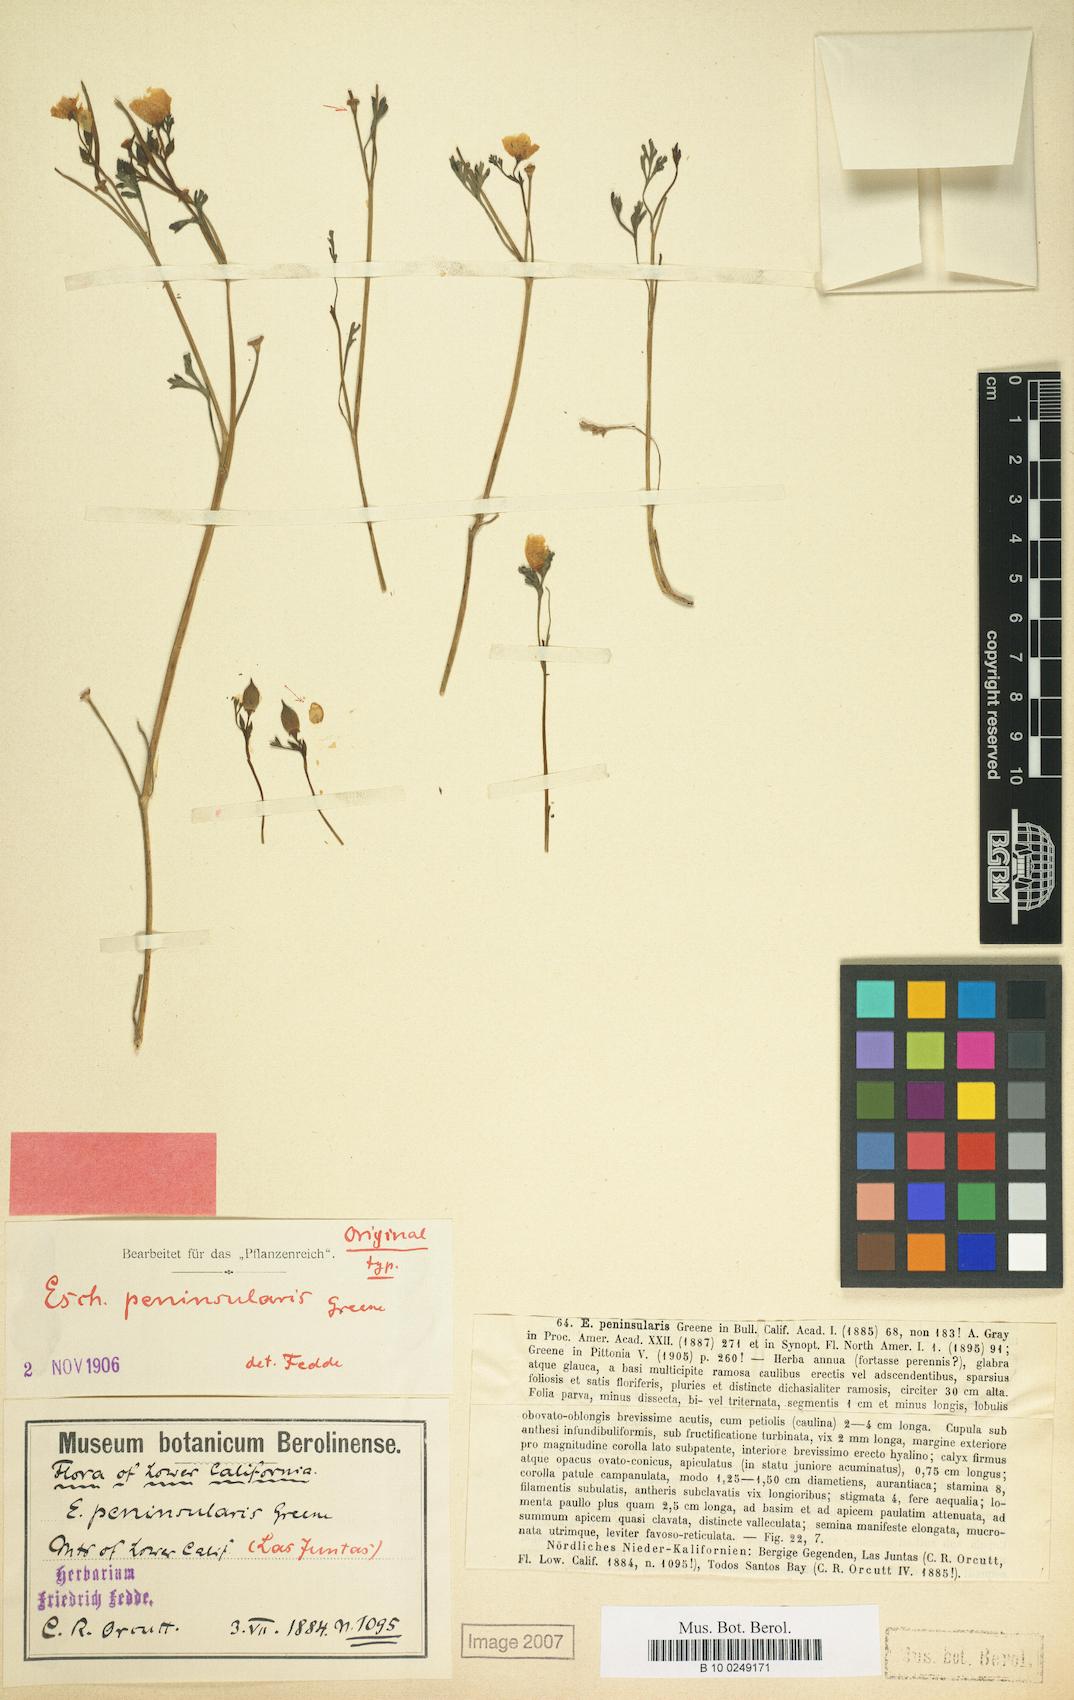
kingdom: Plantae
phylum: Tracheophyta
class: Magnoliopsida
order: Ranunculales
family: Papaveraceae
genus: Eschscholzia
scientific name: Eschscholzia californica
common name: California poppy
